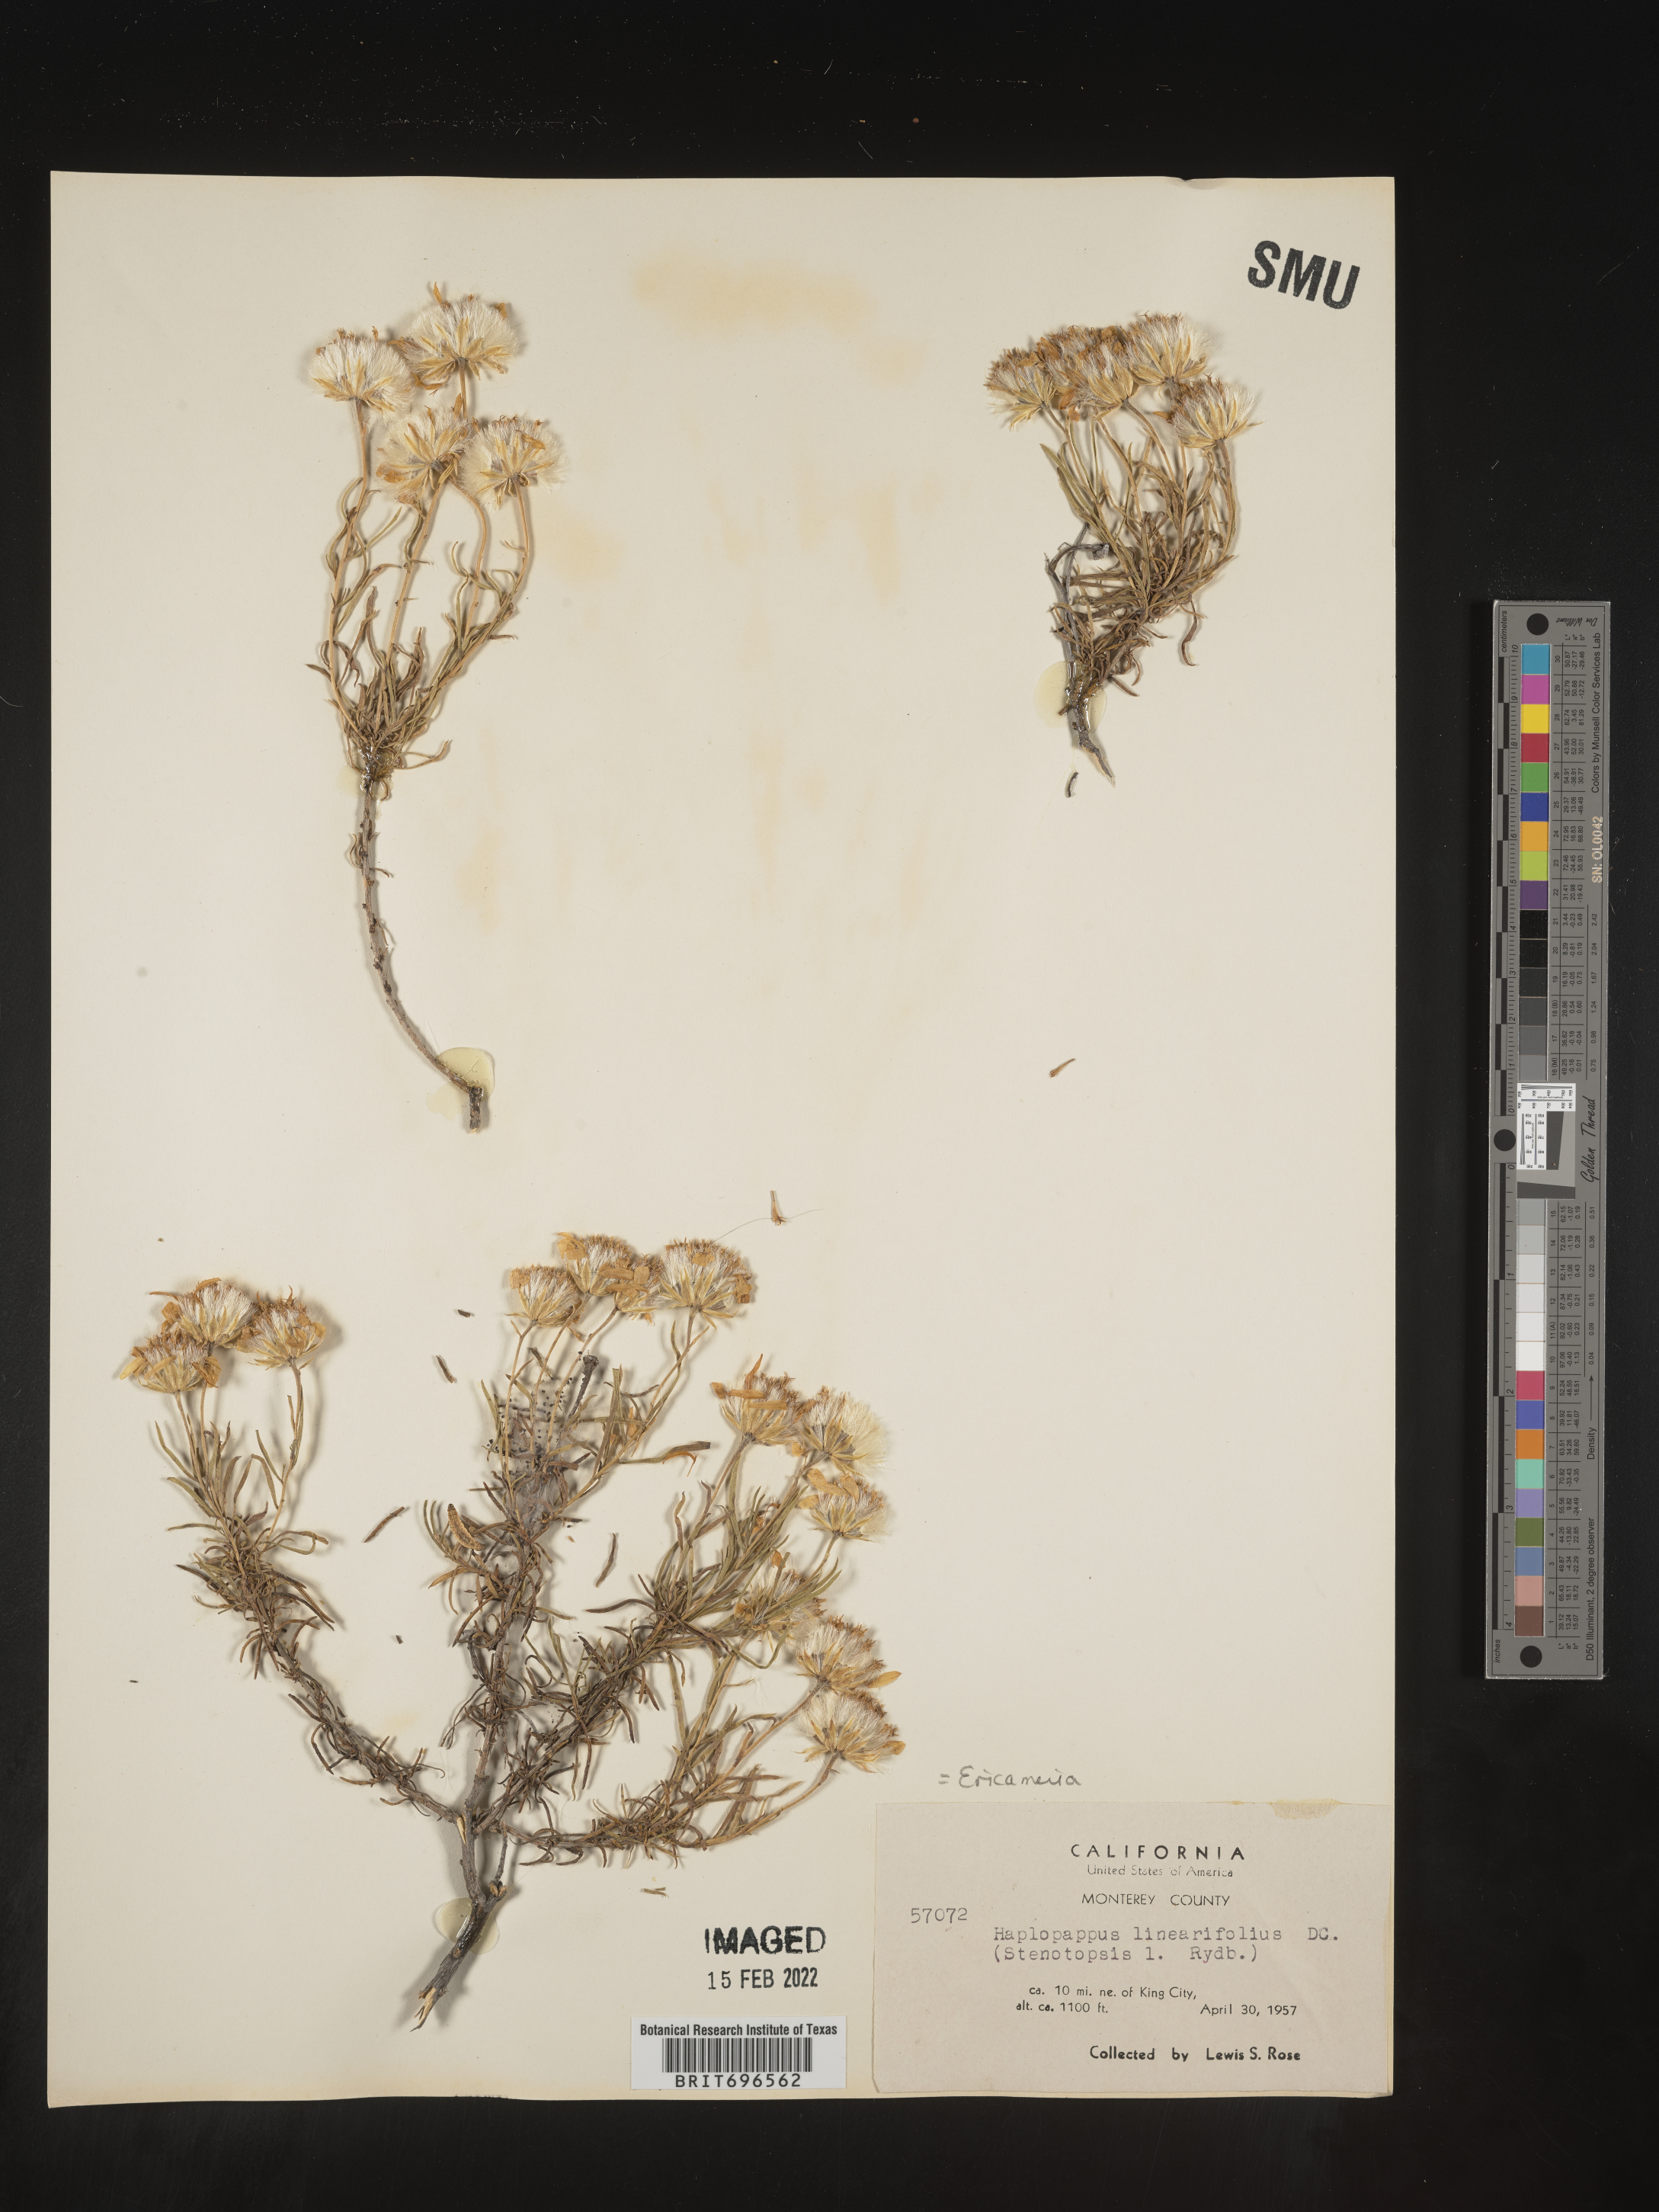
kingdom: Plantae
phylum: Tracheophyta
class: Magnoliopsida
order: Asterales
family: Asteraceae
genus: Ericameria
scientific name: Ericameria linearifolia
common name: Interior goldenbush
